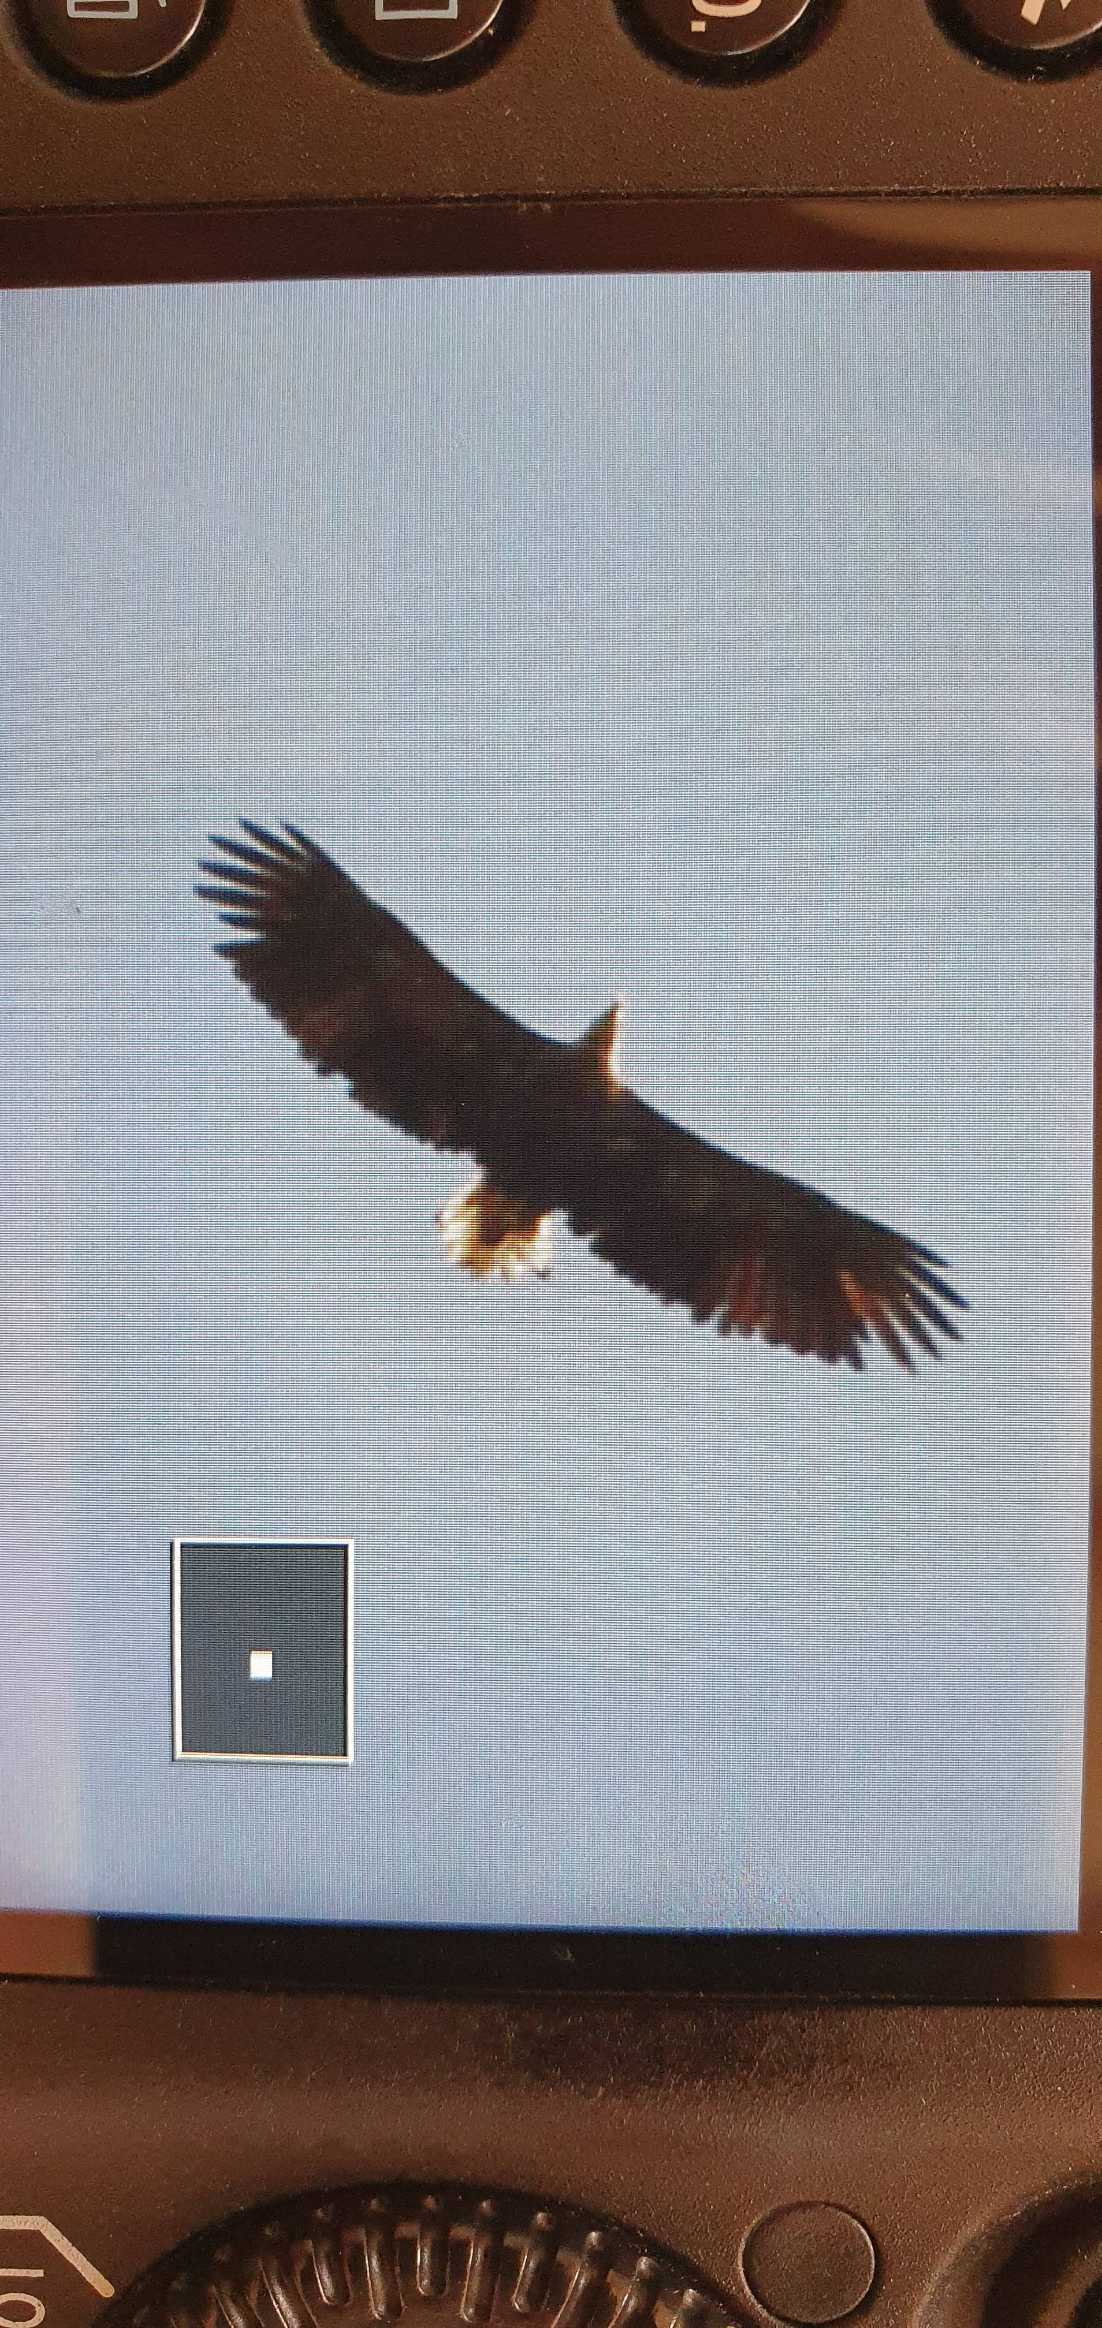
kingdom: Animalia
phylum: Chordata
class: Aves
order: Accipitriformes
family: Accipitridae
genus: Haliaeetus
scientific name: Haliaeetus albicilla
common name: Havørn
